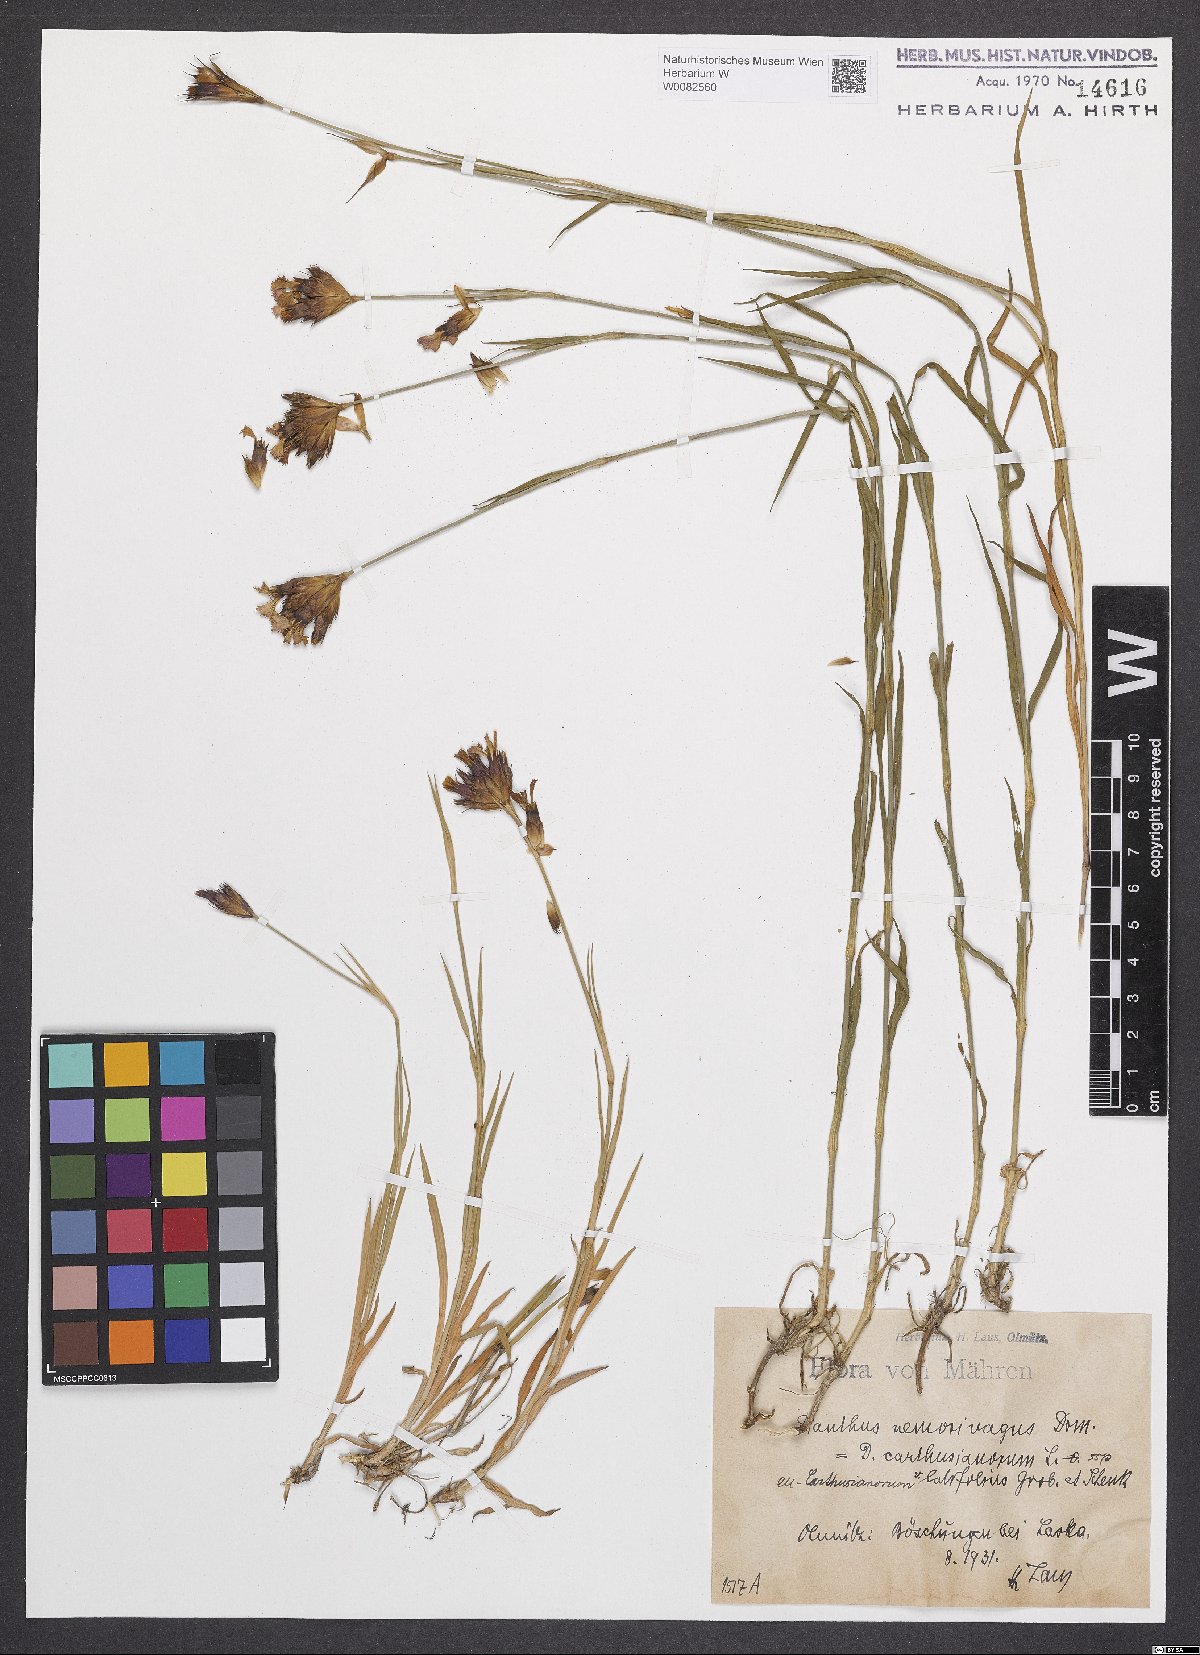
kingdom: Plantae
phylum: Tracheophyta
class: Magnoliopsida
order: Caryophyllales
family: Caryophyllaceae
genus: Dianthus
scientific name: Dianthus carthusianorum
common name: Carthusian pink
